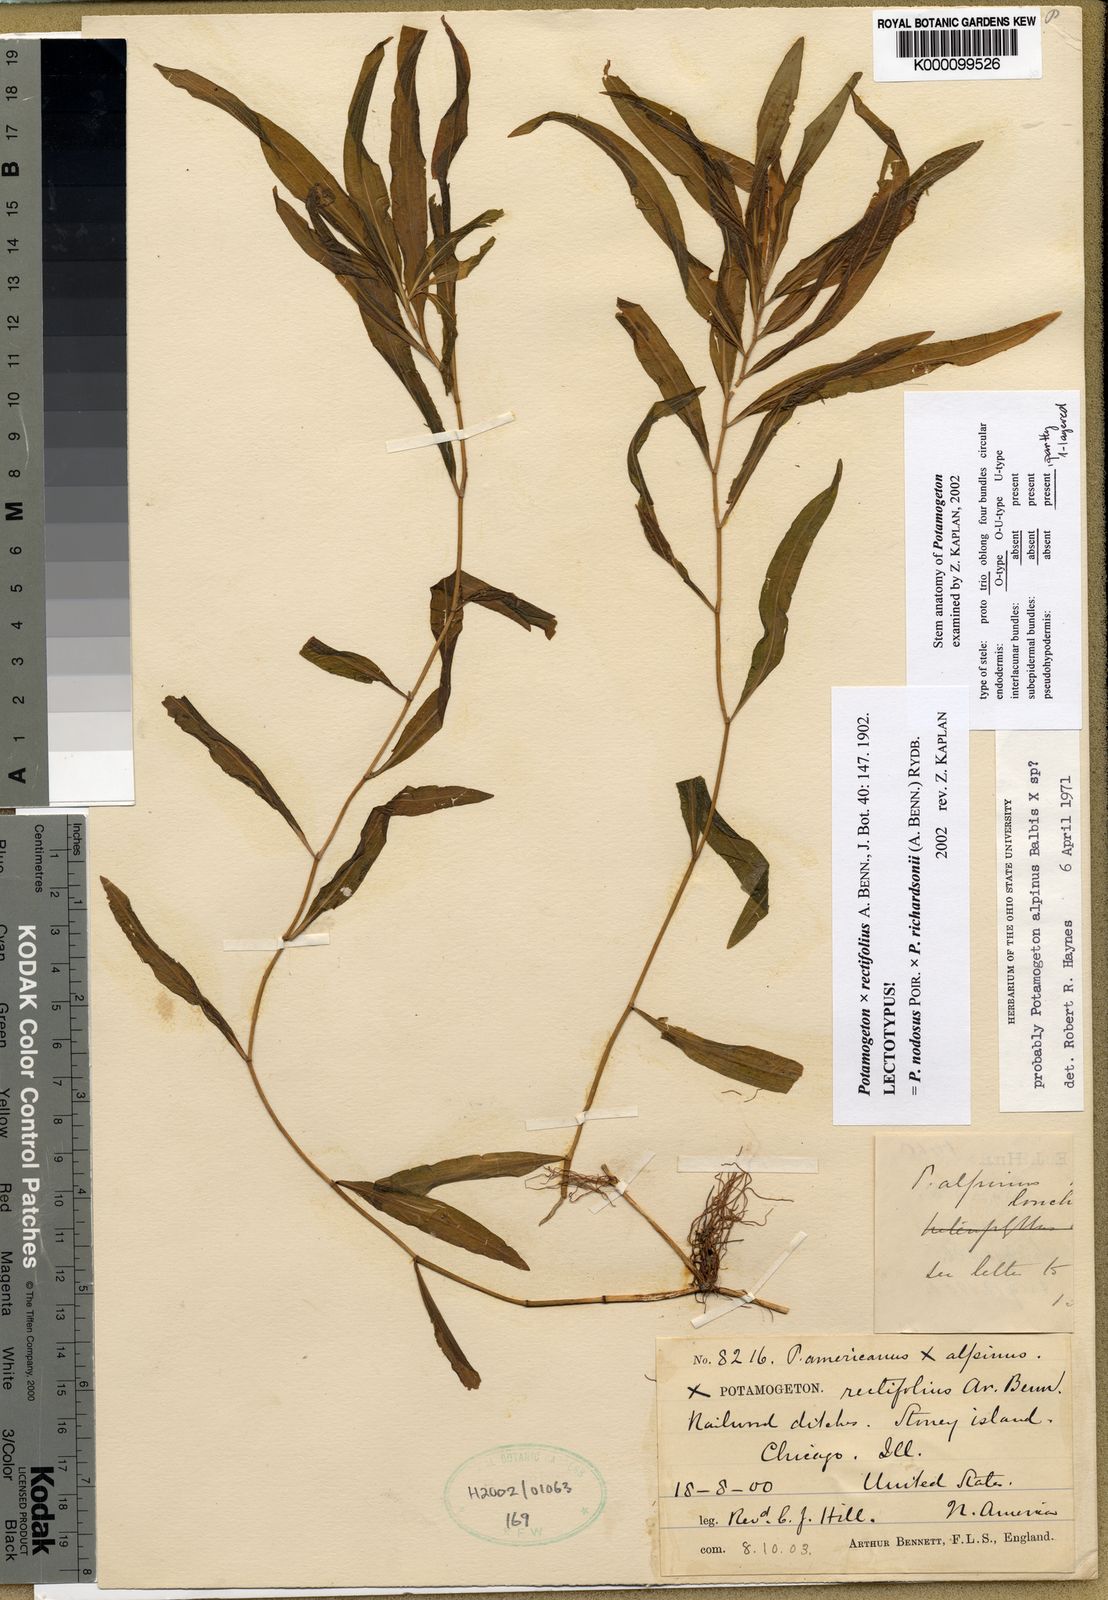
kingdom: Plantae
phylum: Tracheophyta
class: Liliopsida
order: Alismatales
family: Potamogetonaceae
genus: Potamogeton
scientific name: Potamogeton
